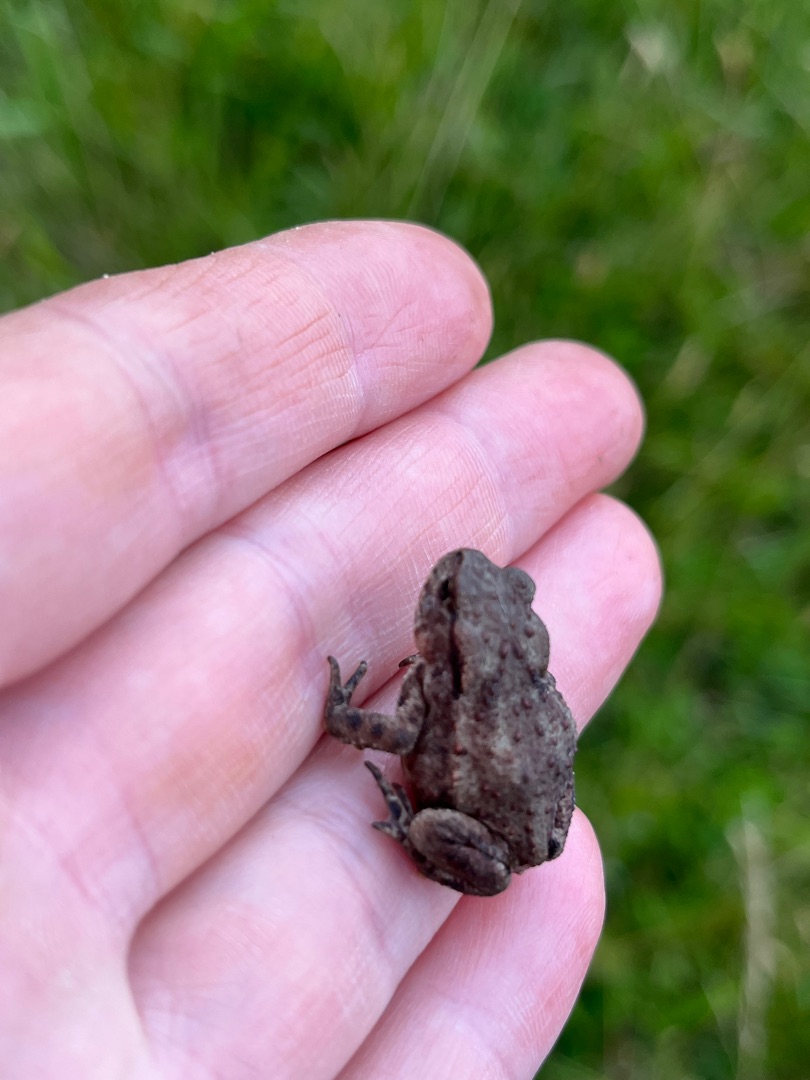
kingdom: Animalia
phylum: Chordata
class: Amphibia
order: Anura
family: Bufonidae
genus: Bufo
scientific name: Bufo bufo
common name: Skrubtudse
